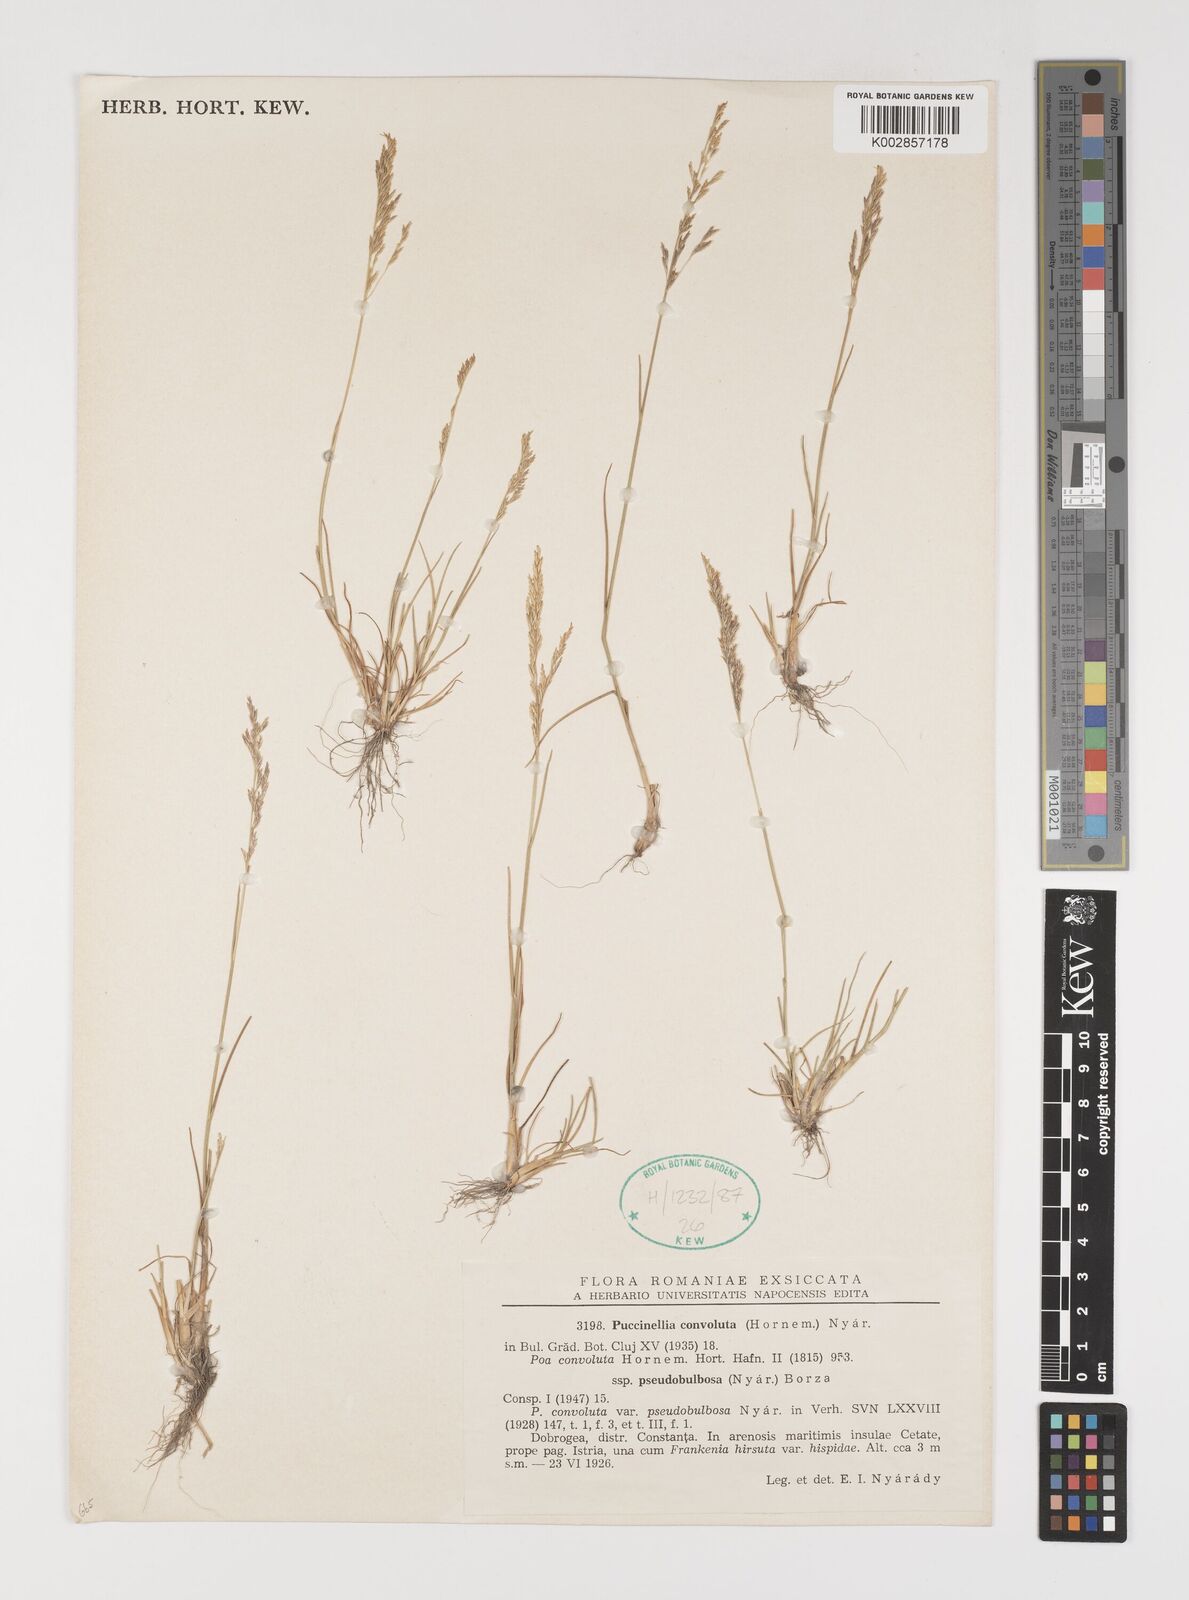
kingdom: Plantae
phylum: Tracheophyta
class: Liliopsida
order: Poales
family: Poaceae
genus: Puccinellia
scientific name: Puccinellia convoluta
